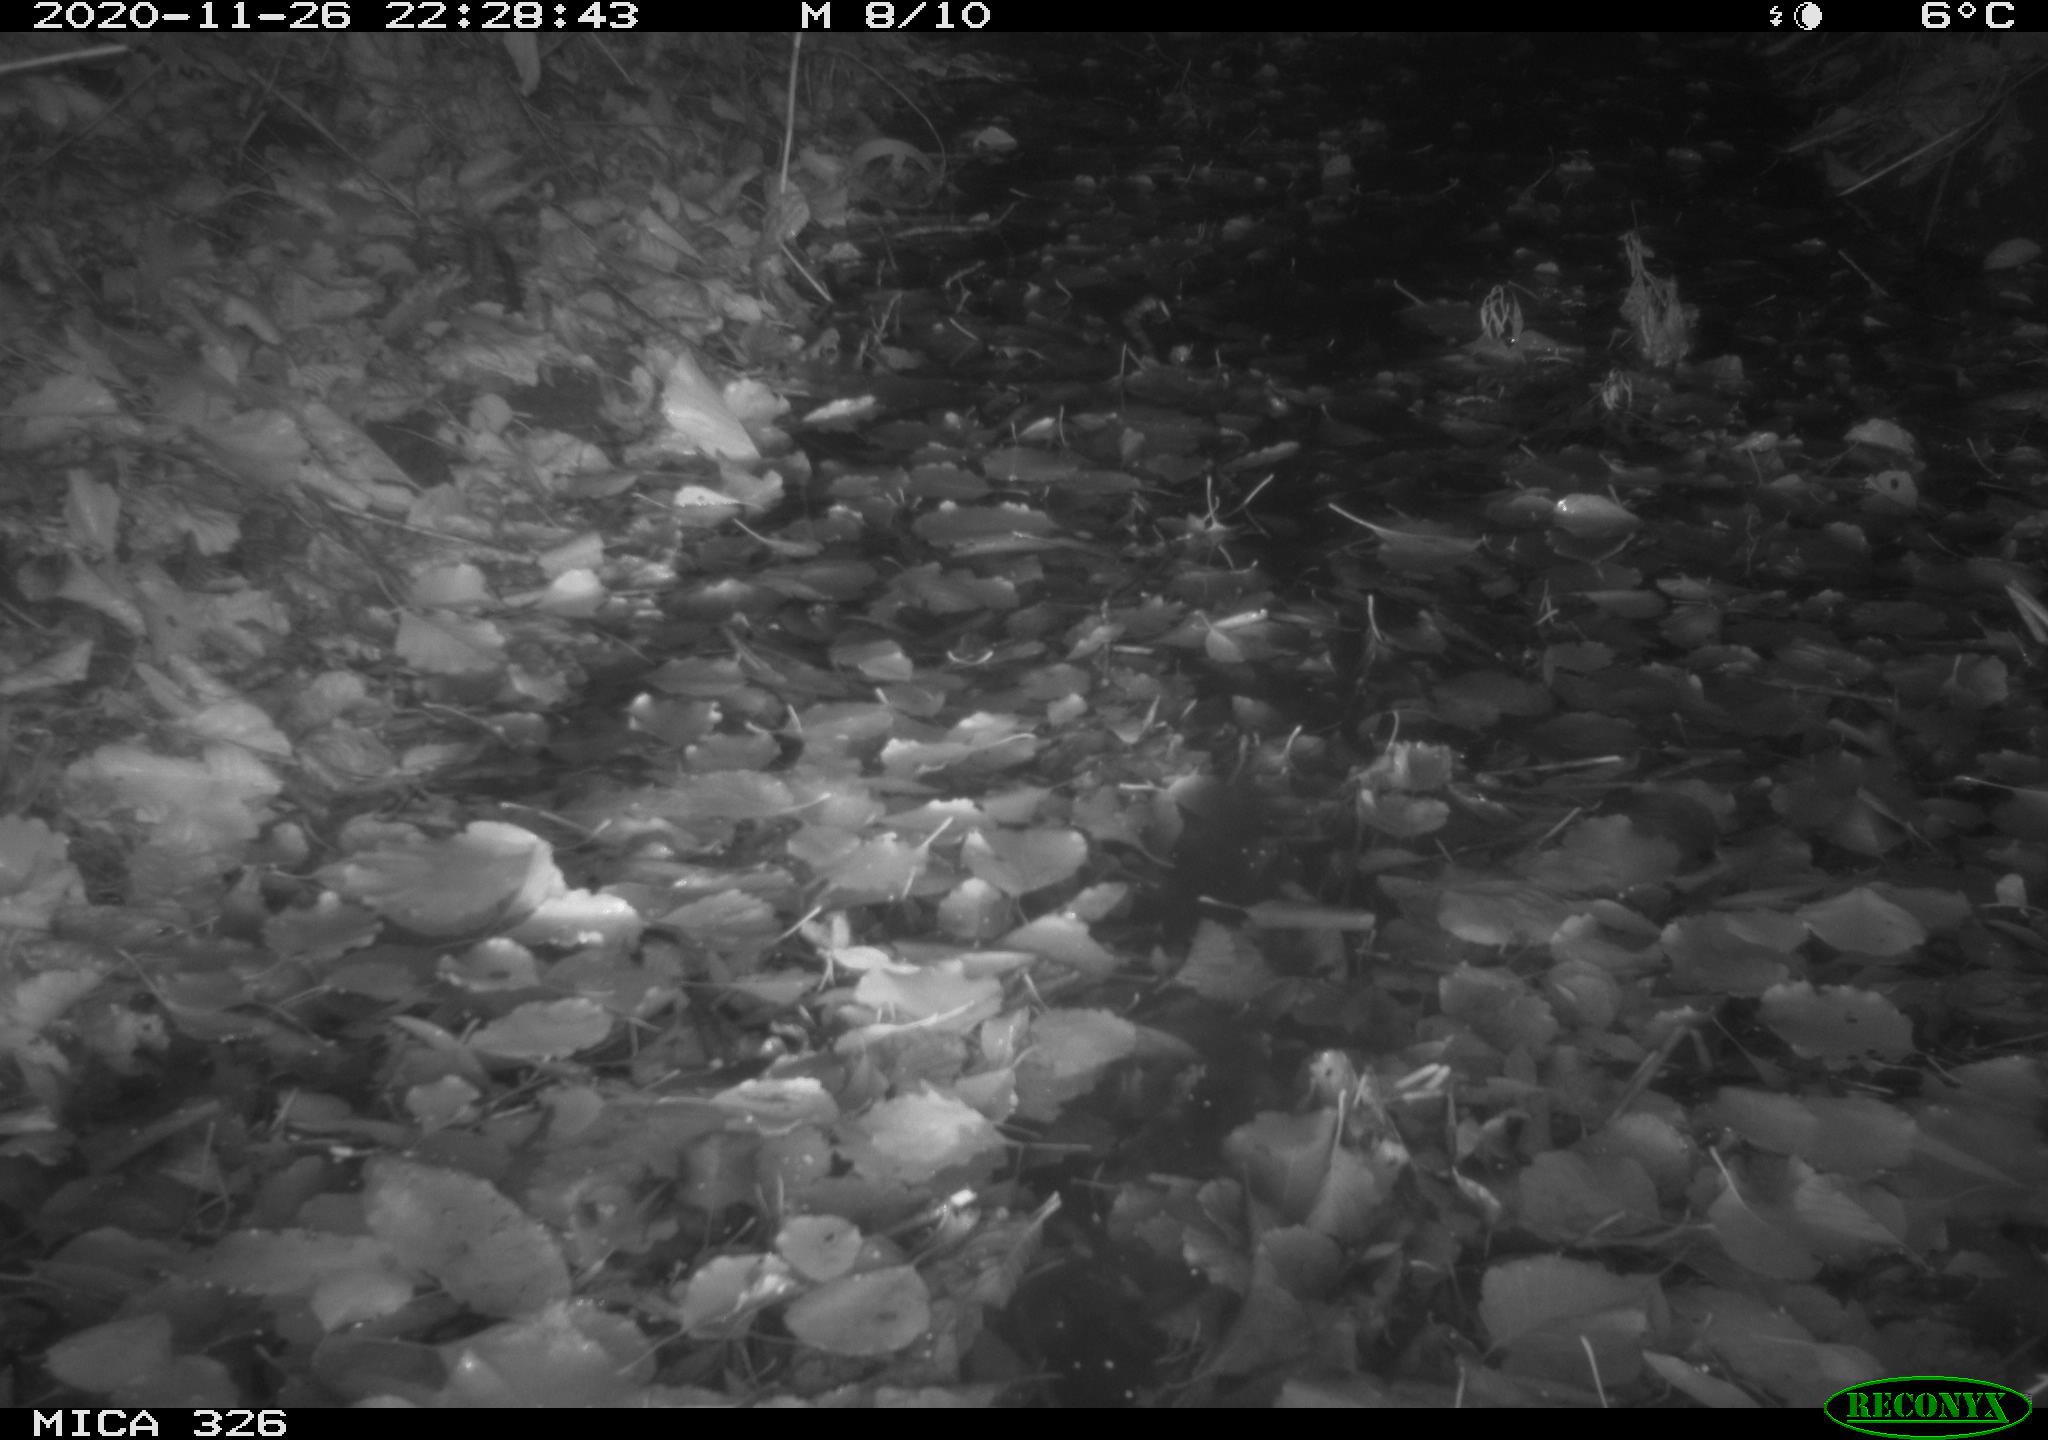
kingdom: Animalia
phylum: Chordata
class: Mammalia
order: Rodentia
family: Myocastoridae
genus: Myocastor
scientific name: Myocastor coypus
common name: Coypu
